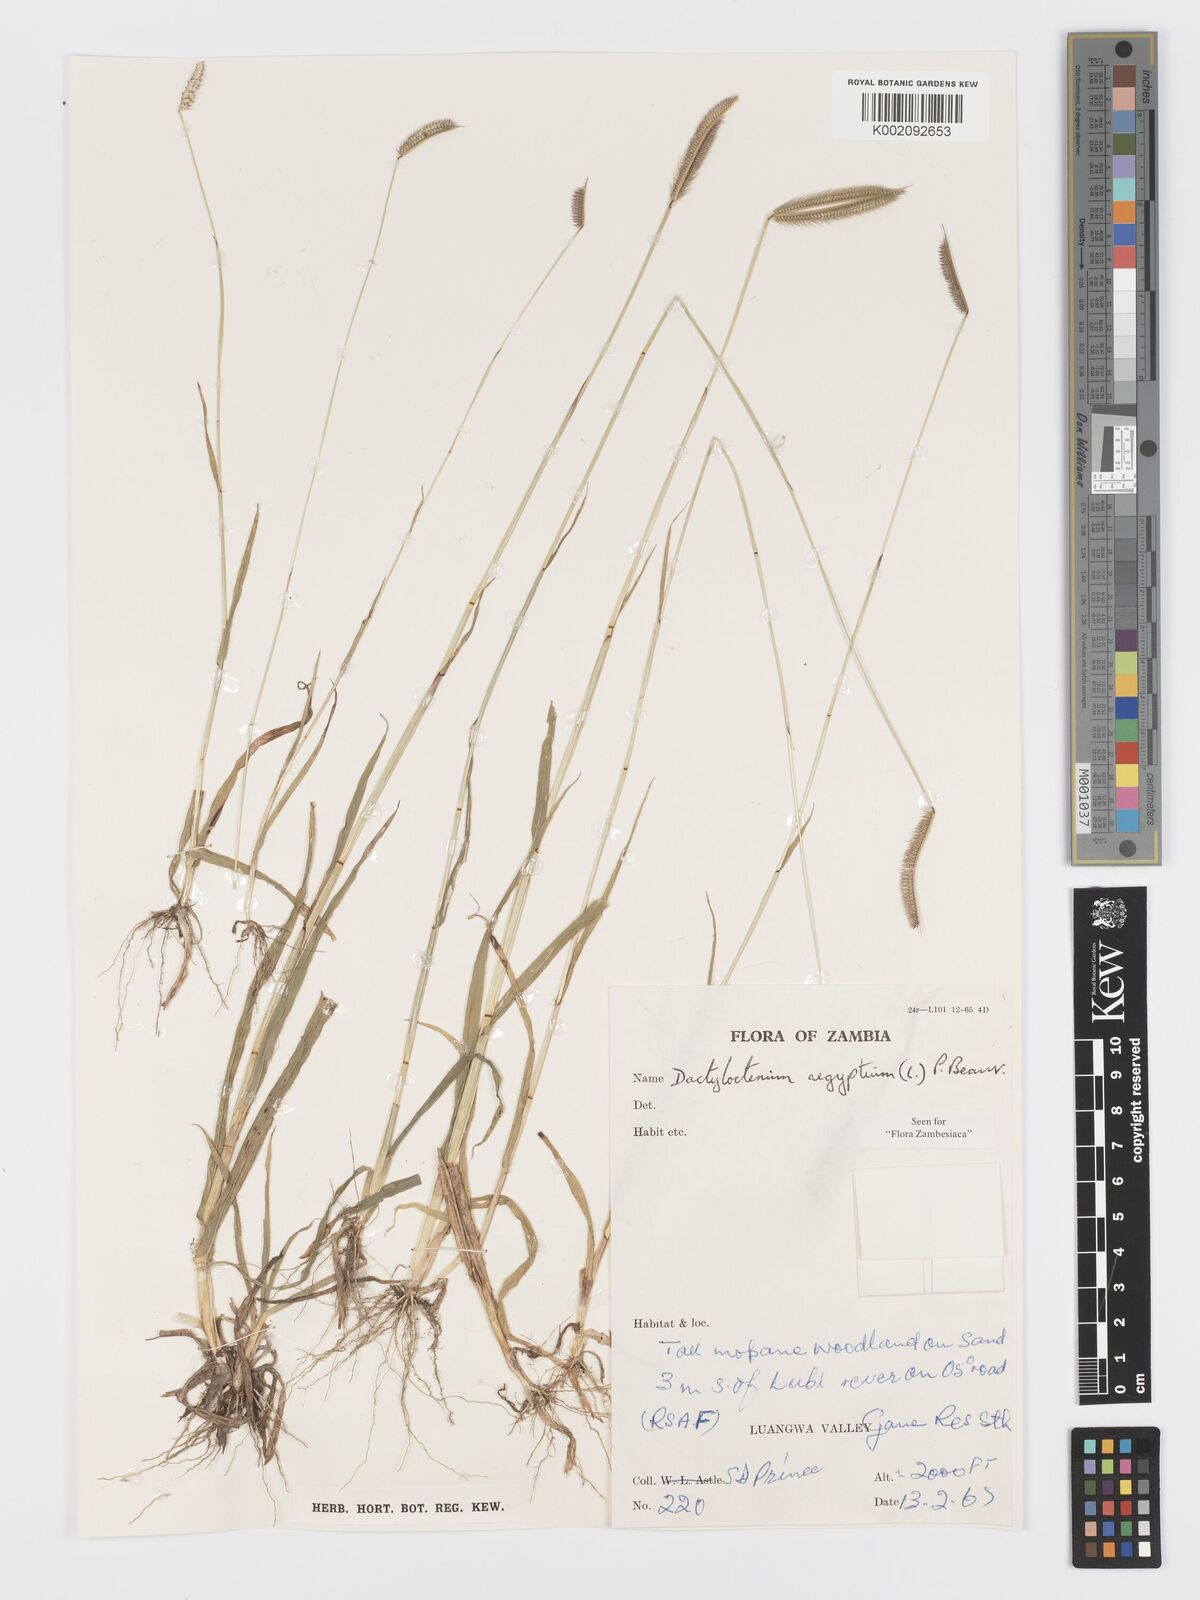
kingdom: Plantae
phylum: Tracheophyta
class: Liliopsida
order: Poales
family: Poaceae
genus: Dactyloctenium
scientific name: Dactyloctenium giganteum
